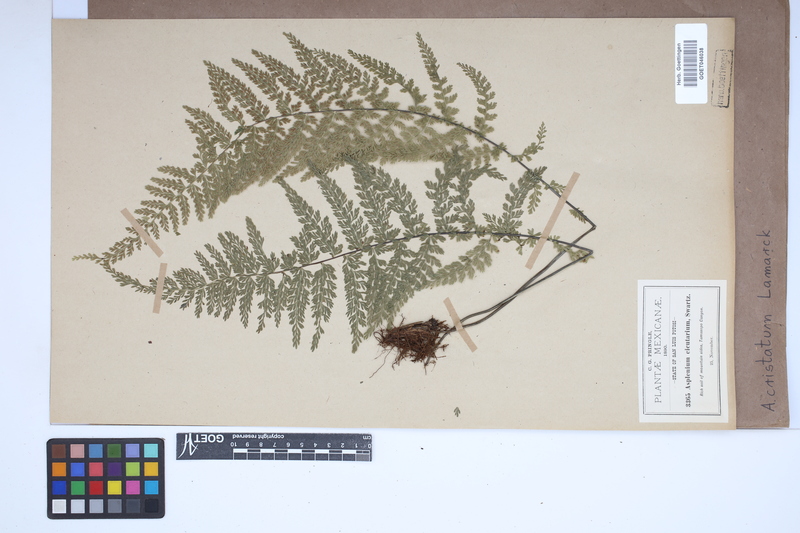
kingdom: Plantae
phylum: Tracheophyta
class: Polypodiopsida
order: Polypodiales
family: Aspleniaceae
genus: Asplenium
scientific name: Asplenium cristatum
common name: Parsley spleenwort
